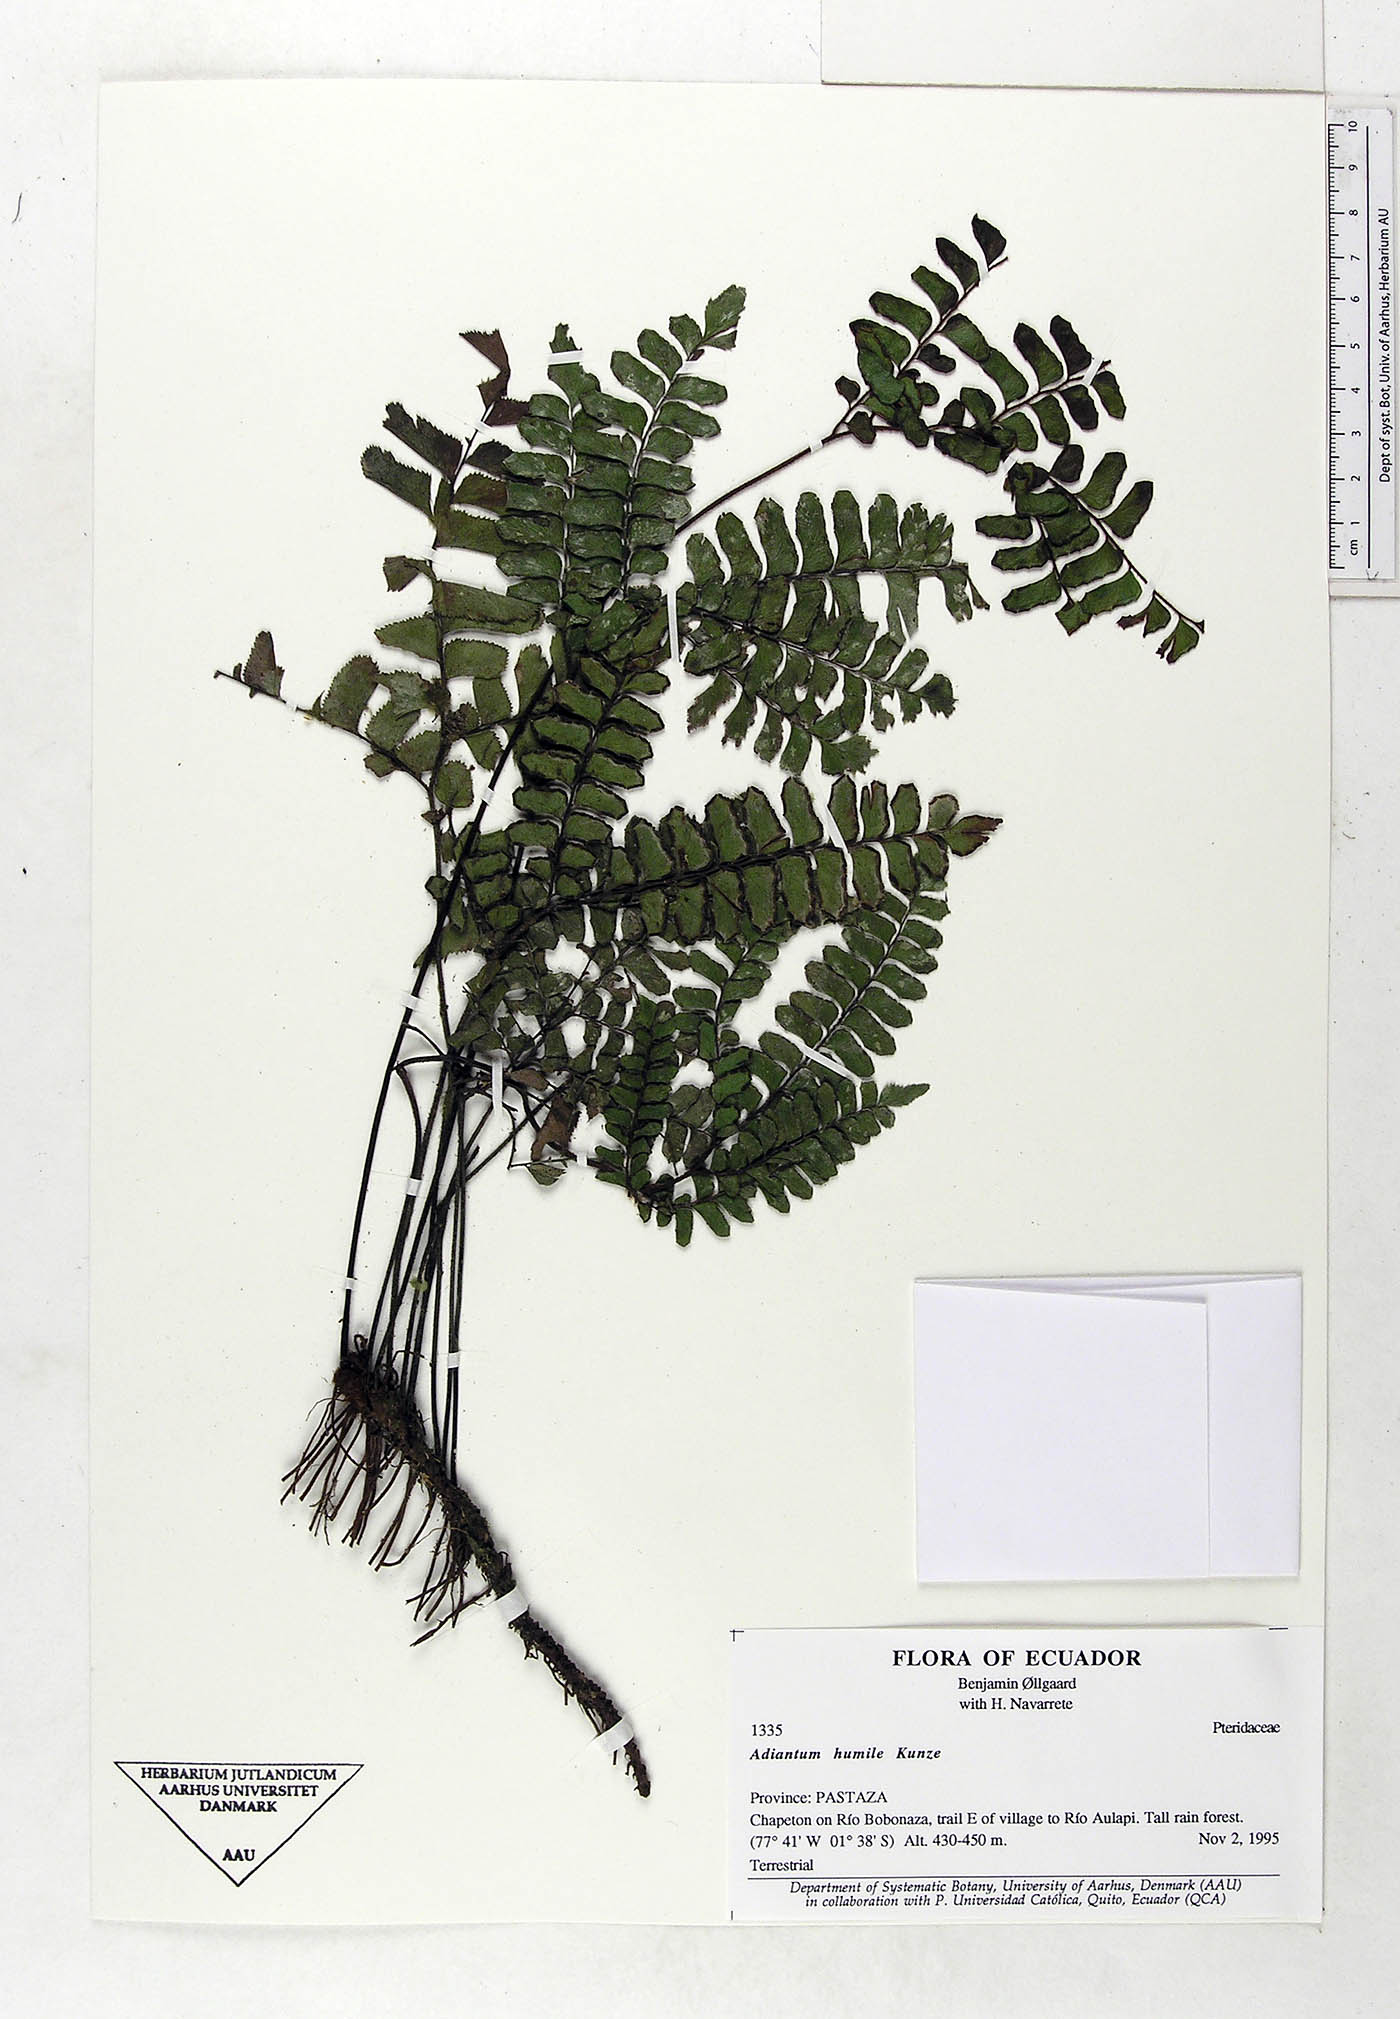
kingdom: Plantae
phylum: Tracheophyta
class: Polypodiopsida
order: Polypodiales
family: Pteridaceae
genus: Adiantum
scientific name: Adiantum humile
